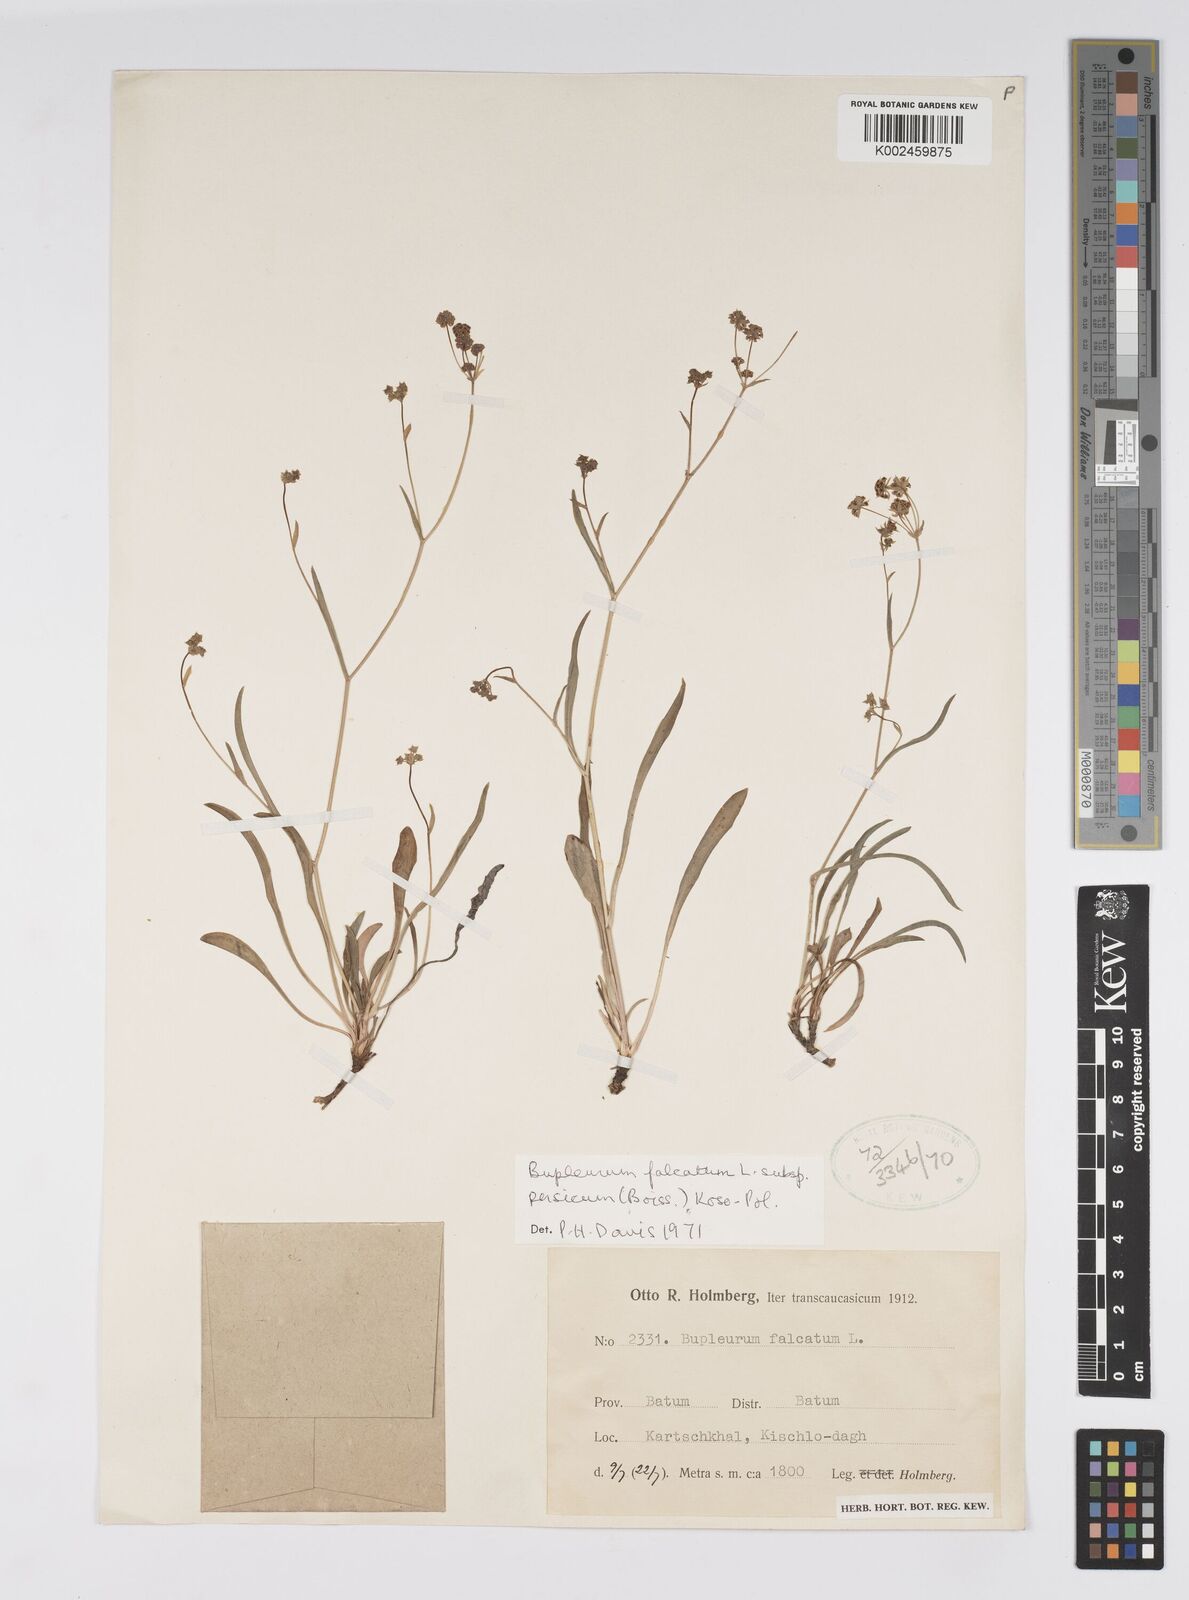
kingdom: Plantae
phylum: Tracheophyta
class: Magnoliopsida
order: Apiales
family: Apiaceae
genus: Bupleurum
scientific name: Bupleurum falcatum
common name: Sickle-leaved hare's-ear
